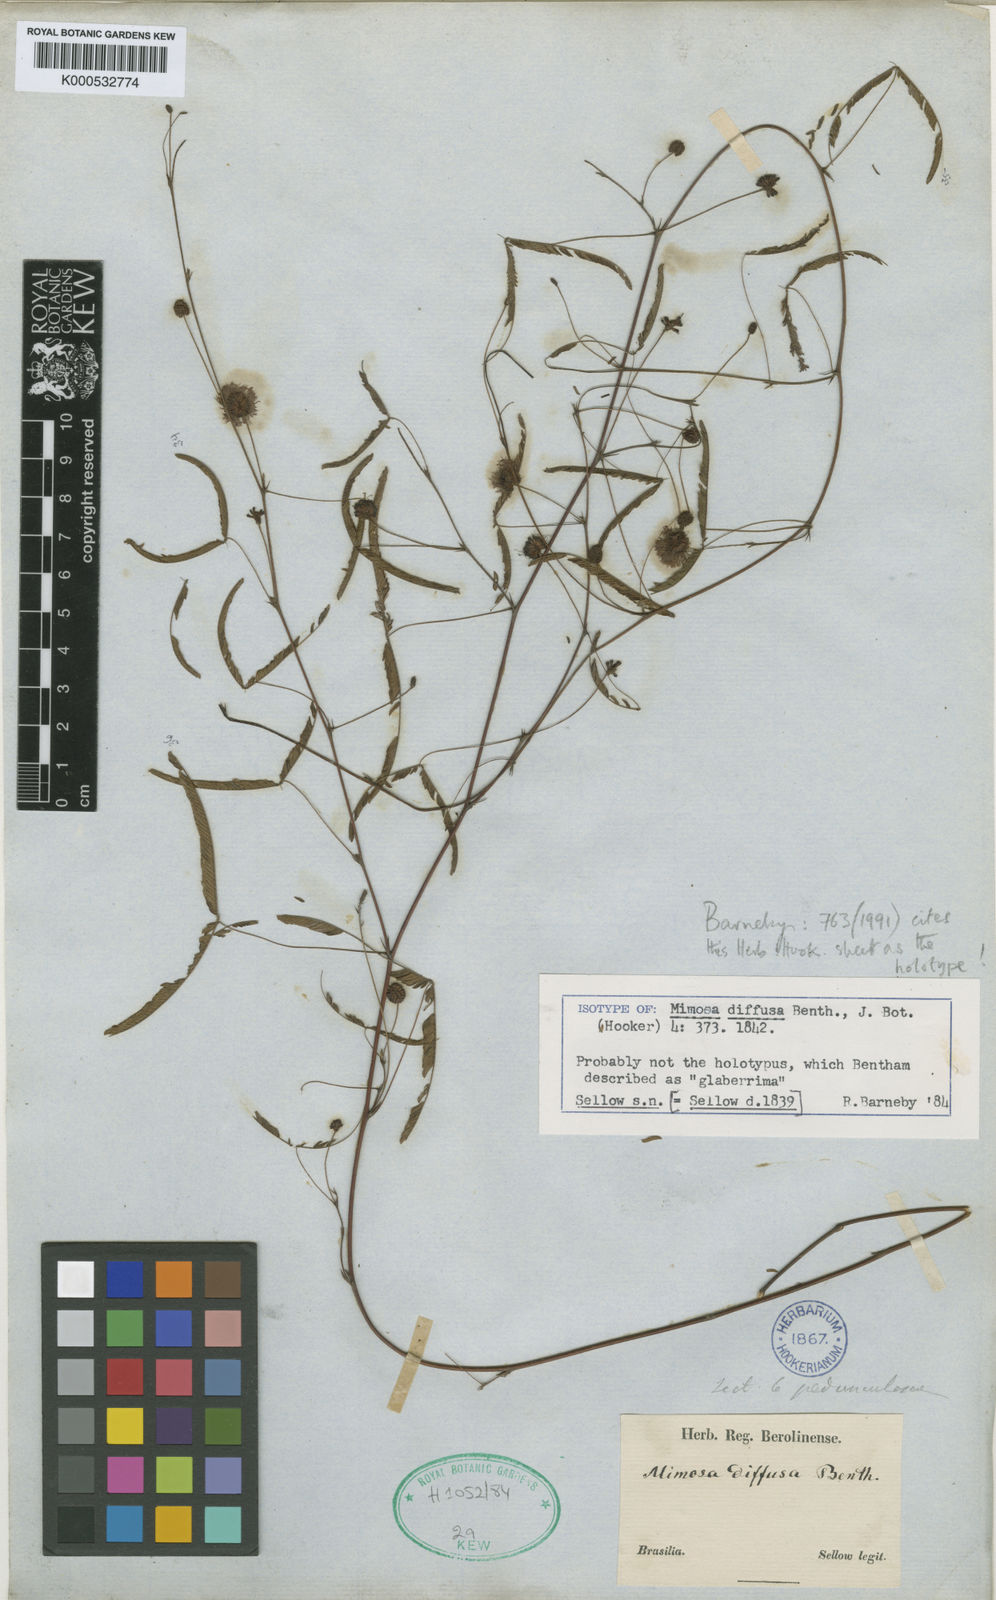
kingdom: Plantae
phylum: Tracheophyta
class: Magnoliopsida
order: Fabales
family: Fabaceae
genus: Mimosa
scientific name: Mimosa diffusa
